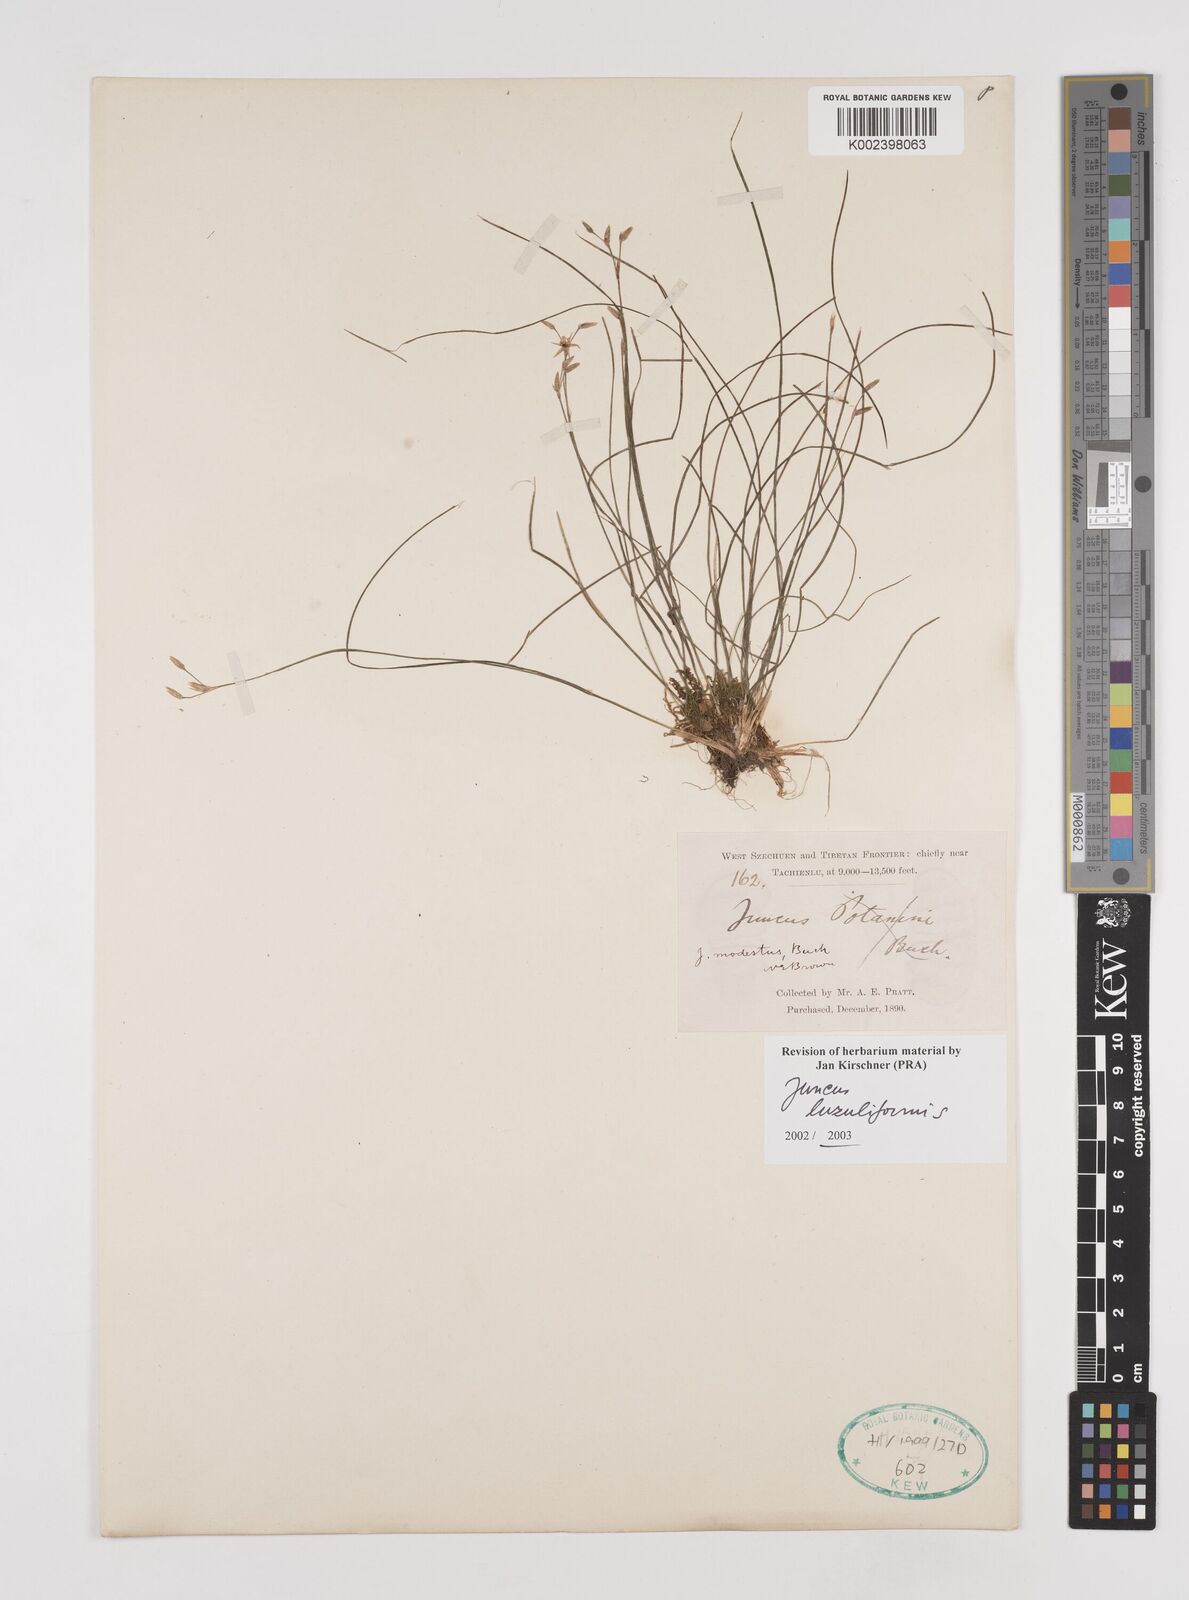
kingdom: Plantae
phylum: Tracheophyta
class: Liliopsida
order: Poales
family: Juncaceae
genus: Juncus
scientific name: Juncus luzuliformis
